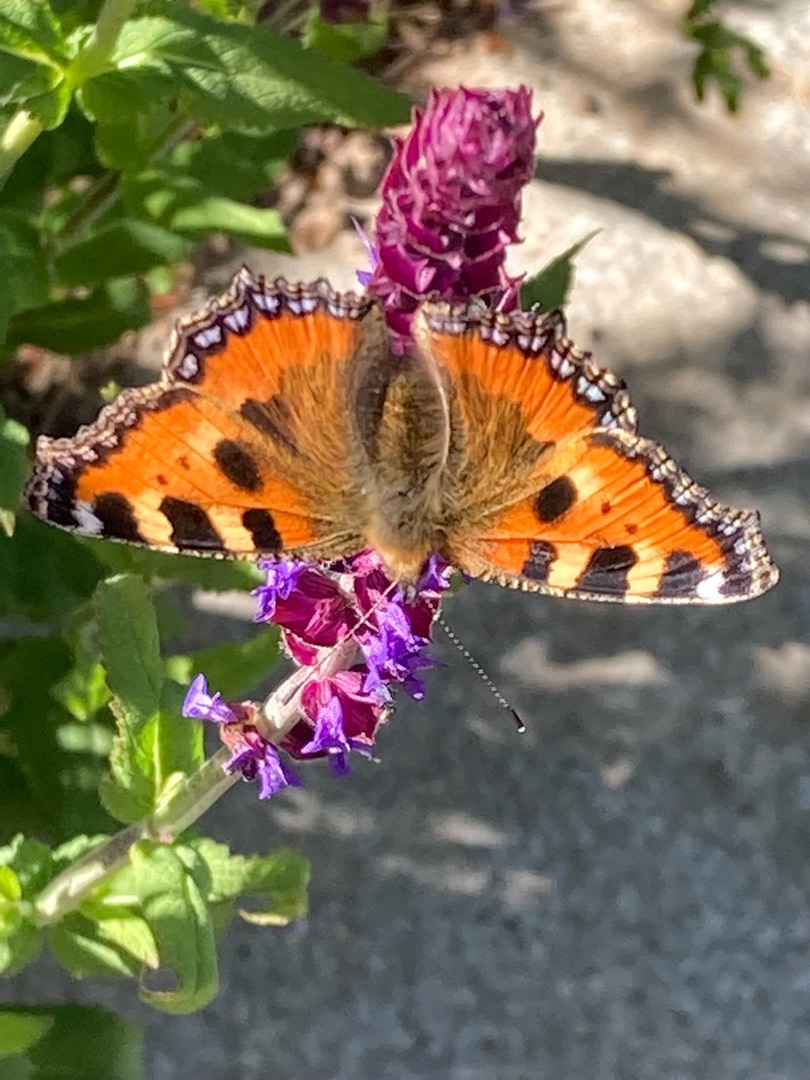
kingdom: Animalia
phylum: Arthropoda
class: Insecta
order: Lepidoptera
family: Nymphalidae
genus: Aglais
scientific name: Aglais urticae
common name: Nældens takvinge
